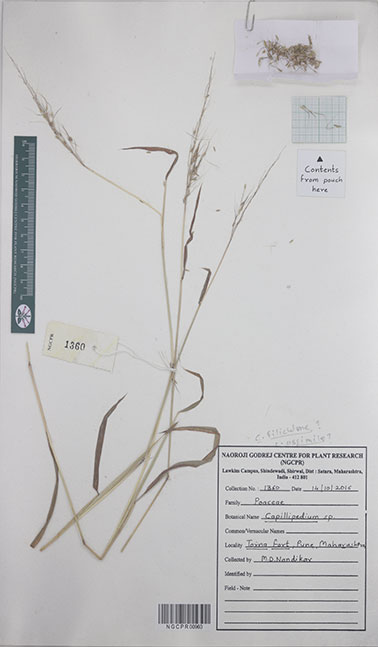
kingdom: Plantae
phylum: Tracheophyta
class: Liliopsida
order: Poales
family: Poaceae
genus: Capillipedium
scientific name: Capillipedium
